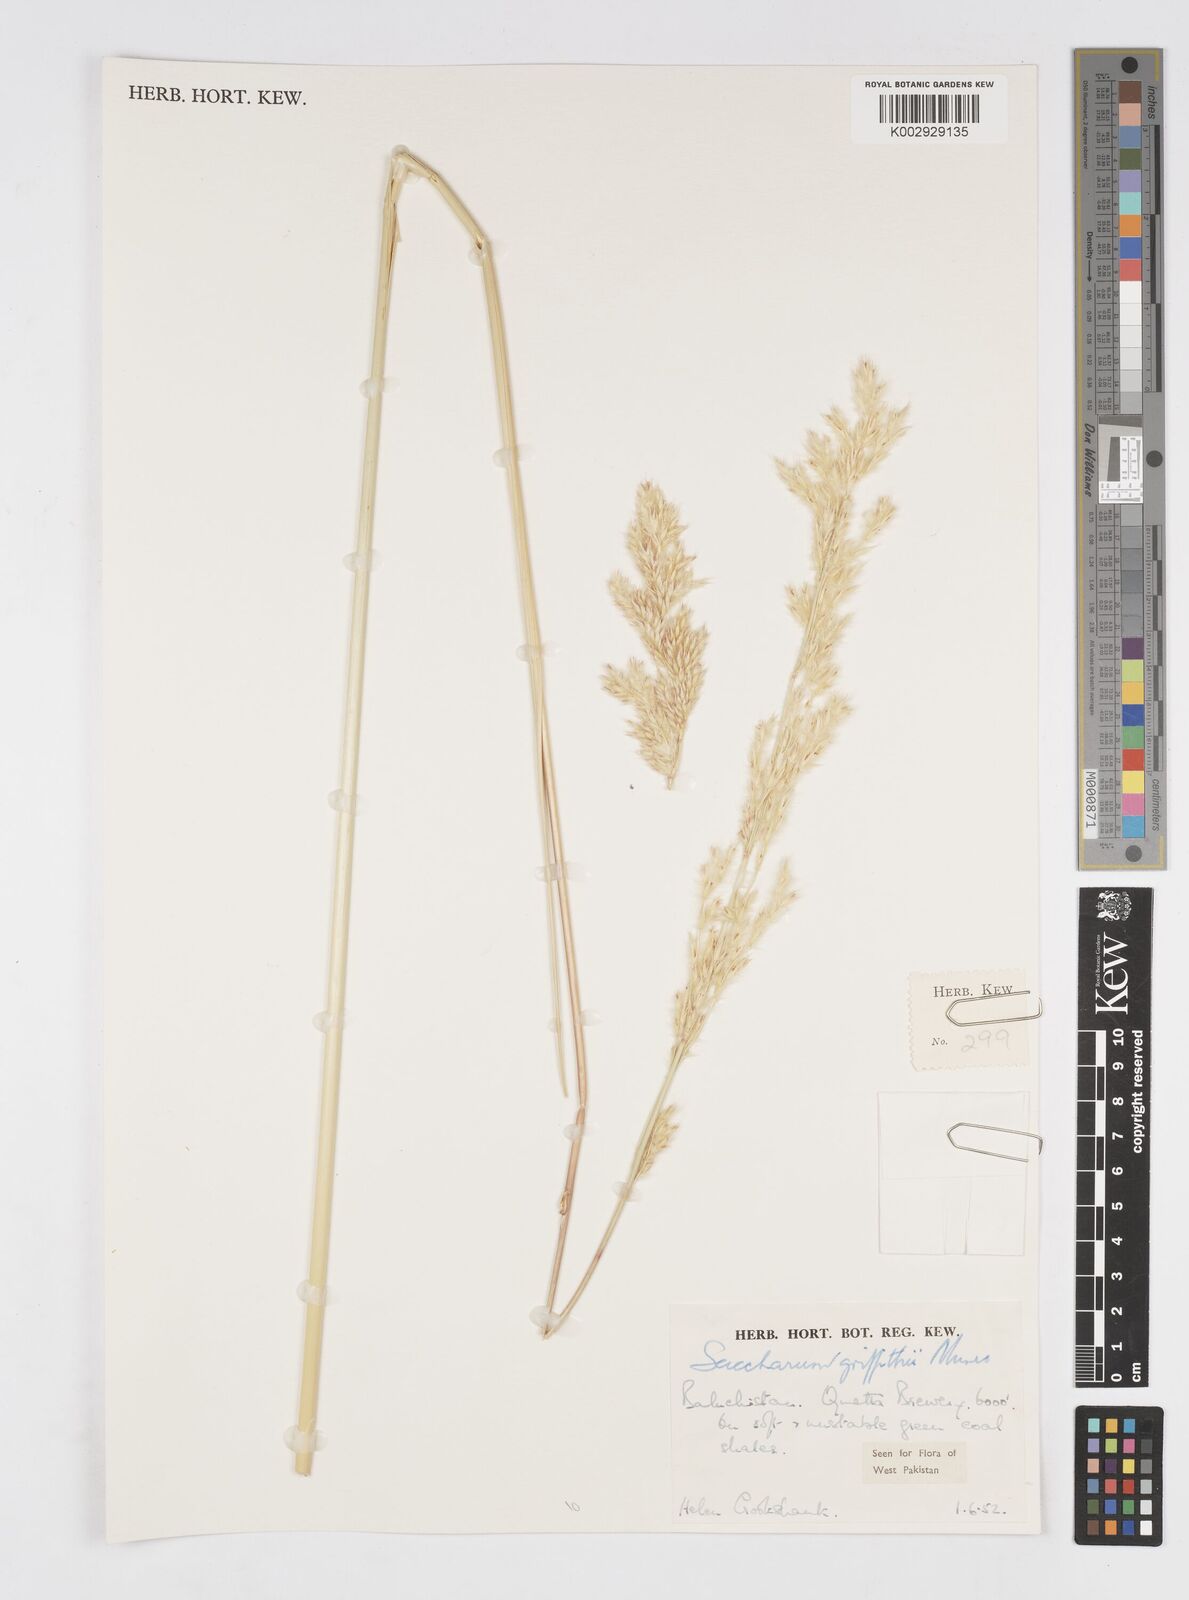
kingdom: Plantae
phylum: Tracheophyta
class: Liliopsida
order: Poales
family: Poaceae
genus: Saccharum
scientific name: Saccharum griffithii
